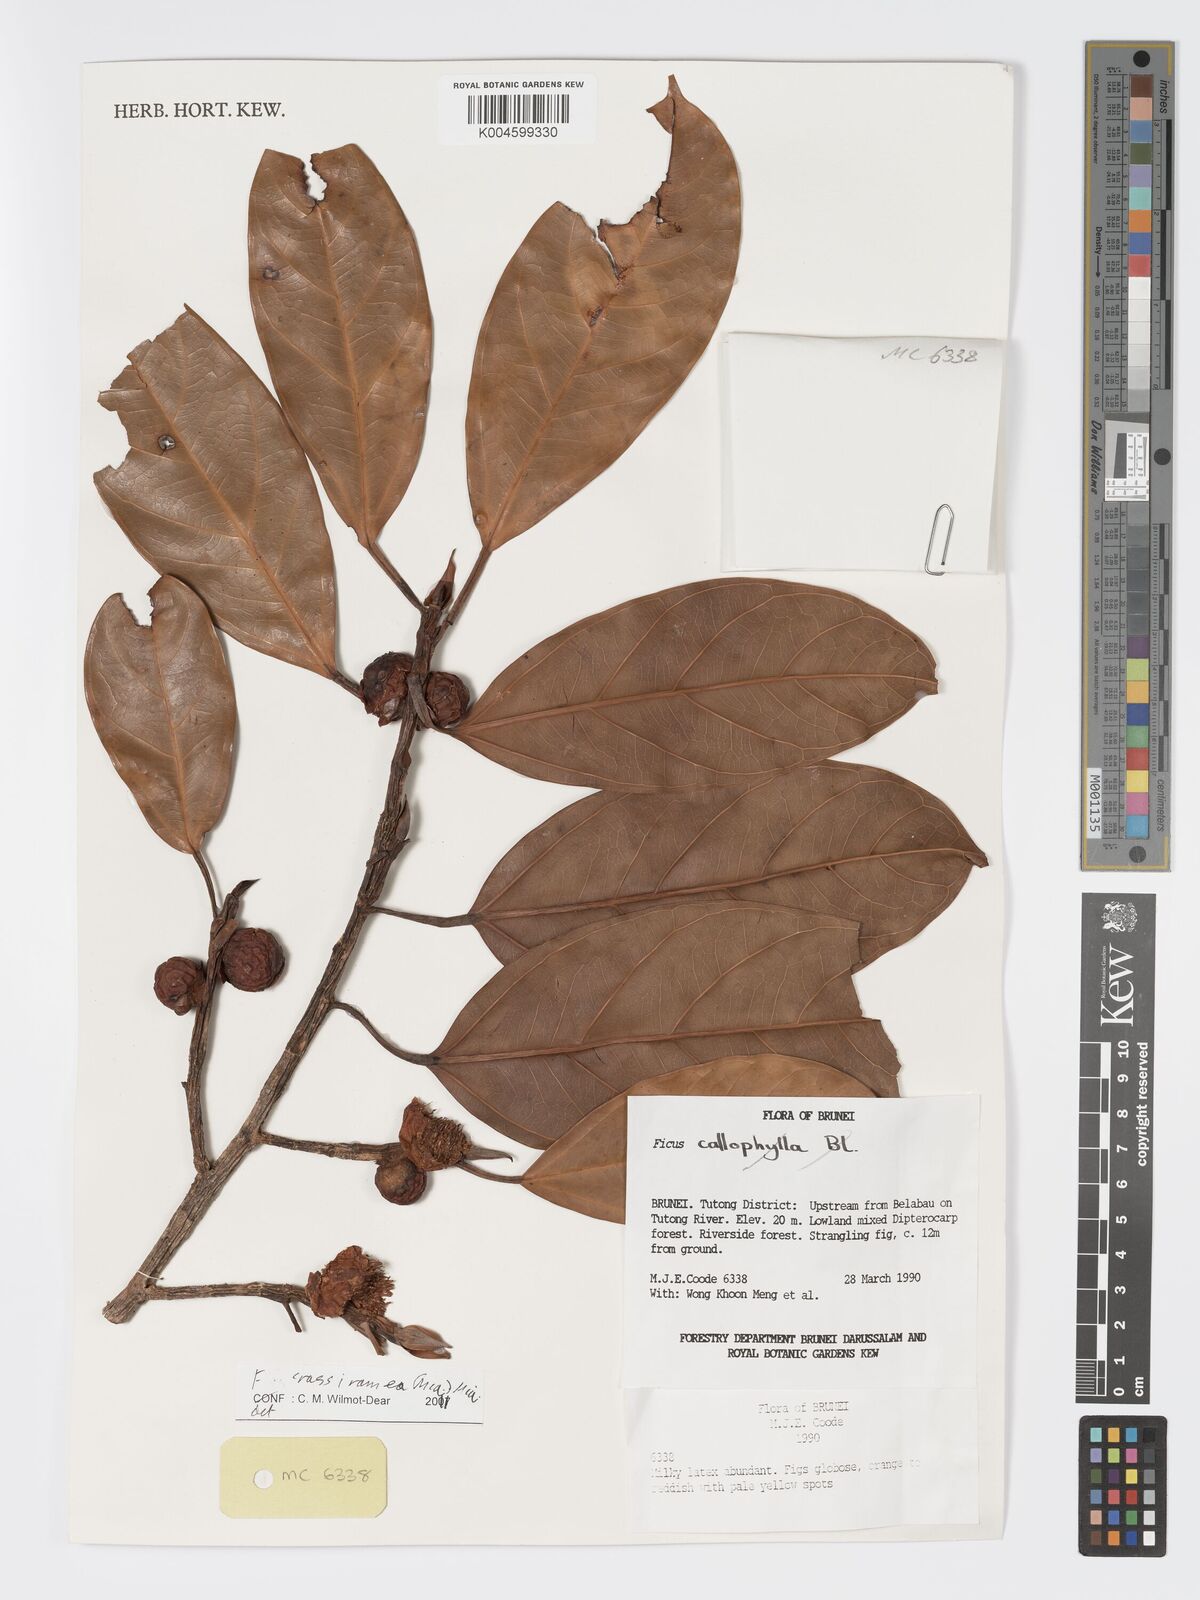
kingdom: Plantae
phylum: Tracheophyta
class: Magnoliopsida
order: Rosales
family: Moraceae
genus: Ficus
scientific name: Ficus crassiramea
